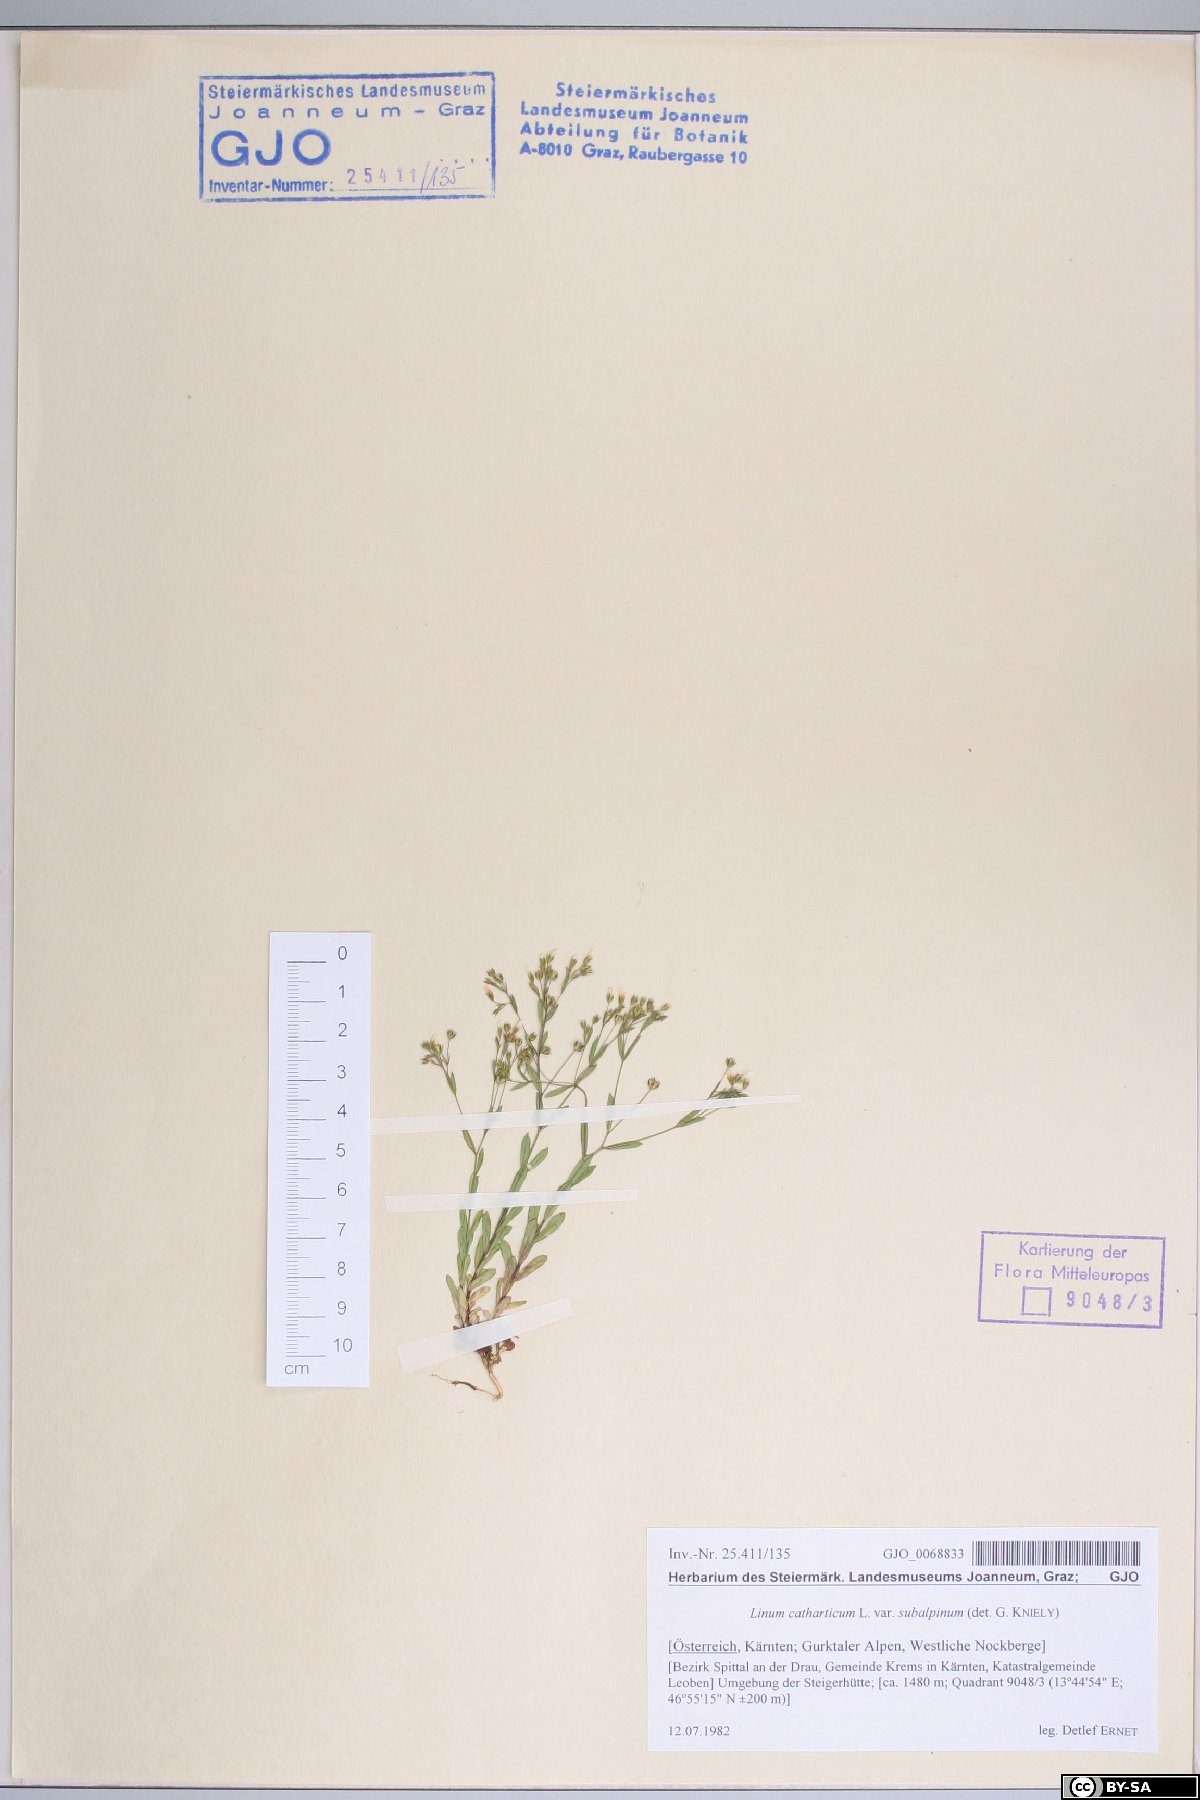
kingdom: Plantae
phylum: Tracheophyta
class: Magnoliopsida
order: Malpighiales
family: Linaceae
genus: Linum
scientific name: Linum catharticum
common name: Fairy flax
